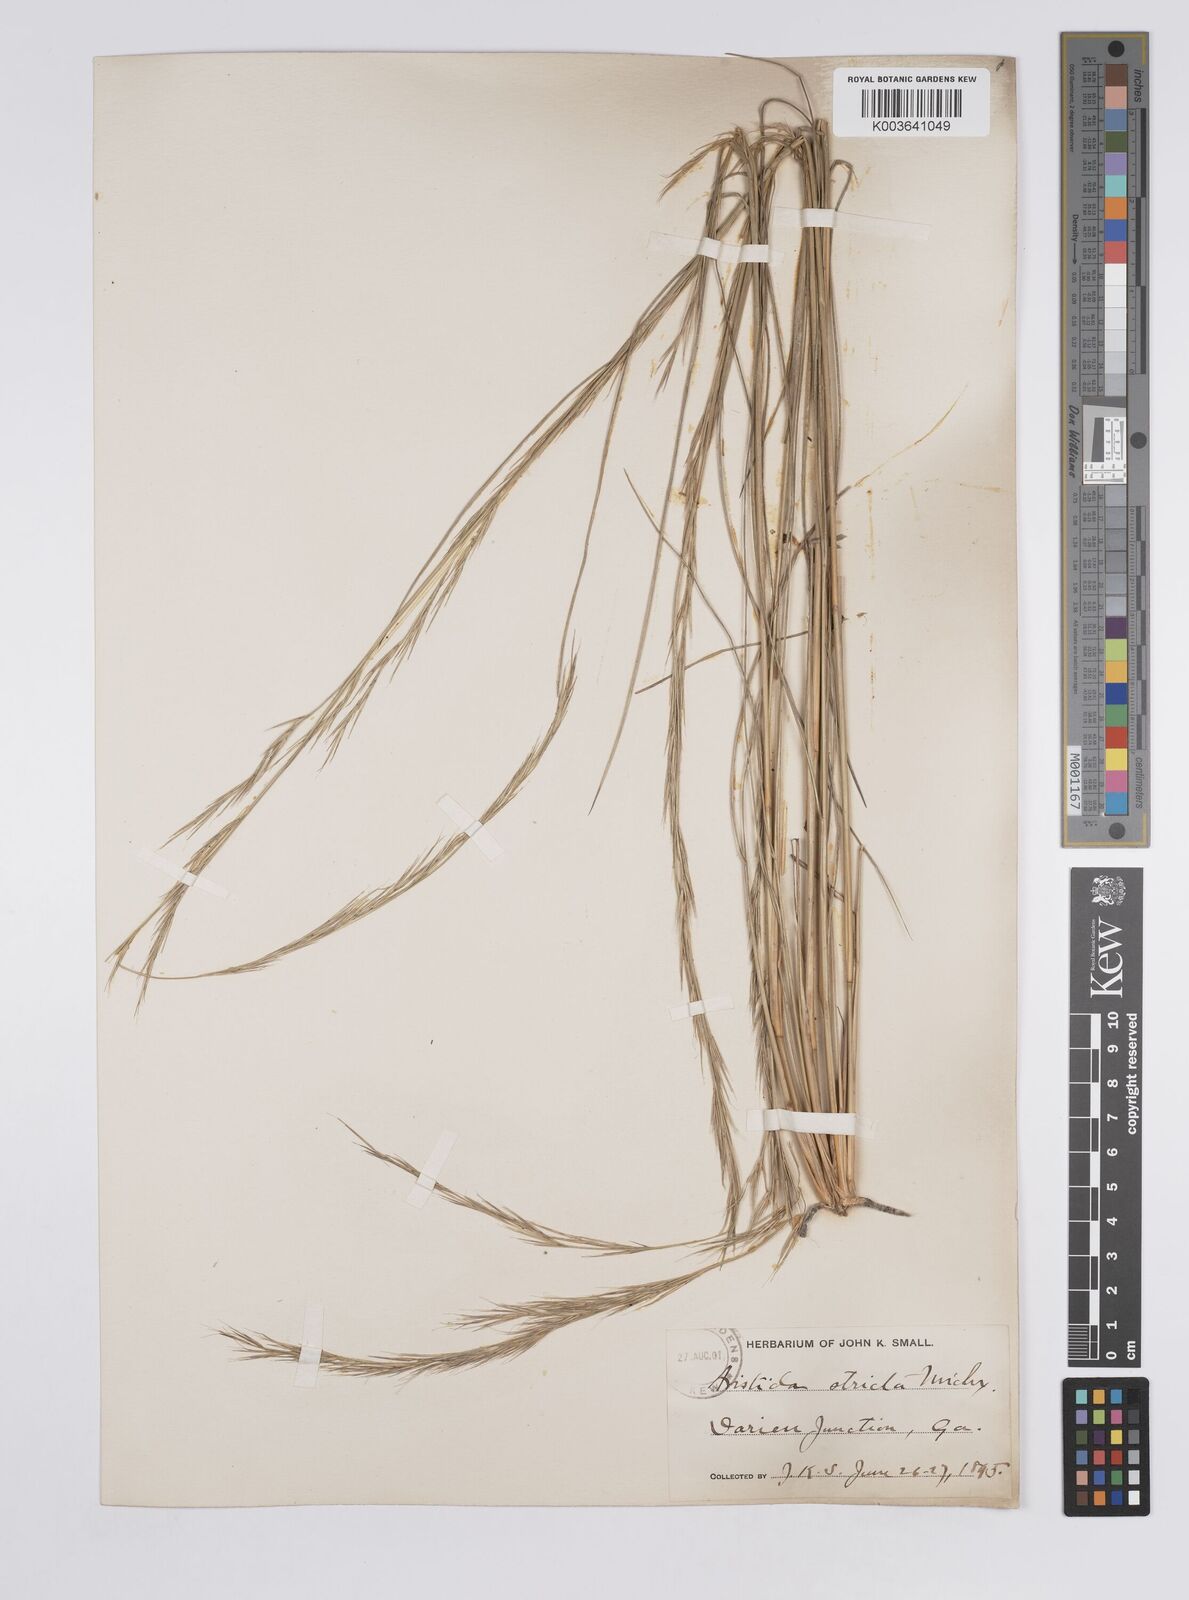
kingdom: Plantae
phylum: Tracheophyta
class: Liliopsida
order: Poales
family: Poaceae
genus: Aristida
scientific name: Aristida stricta
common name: Pineland three-awn
